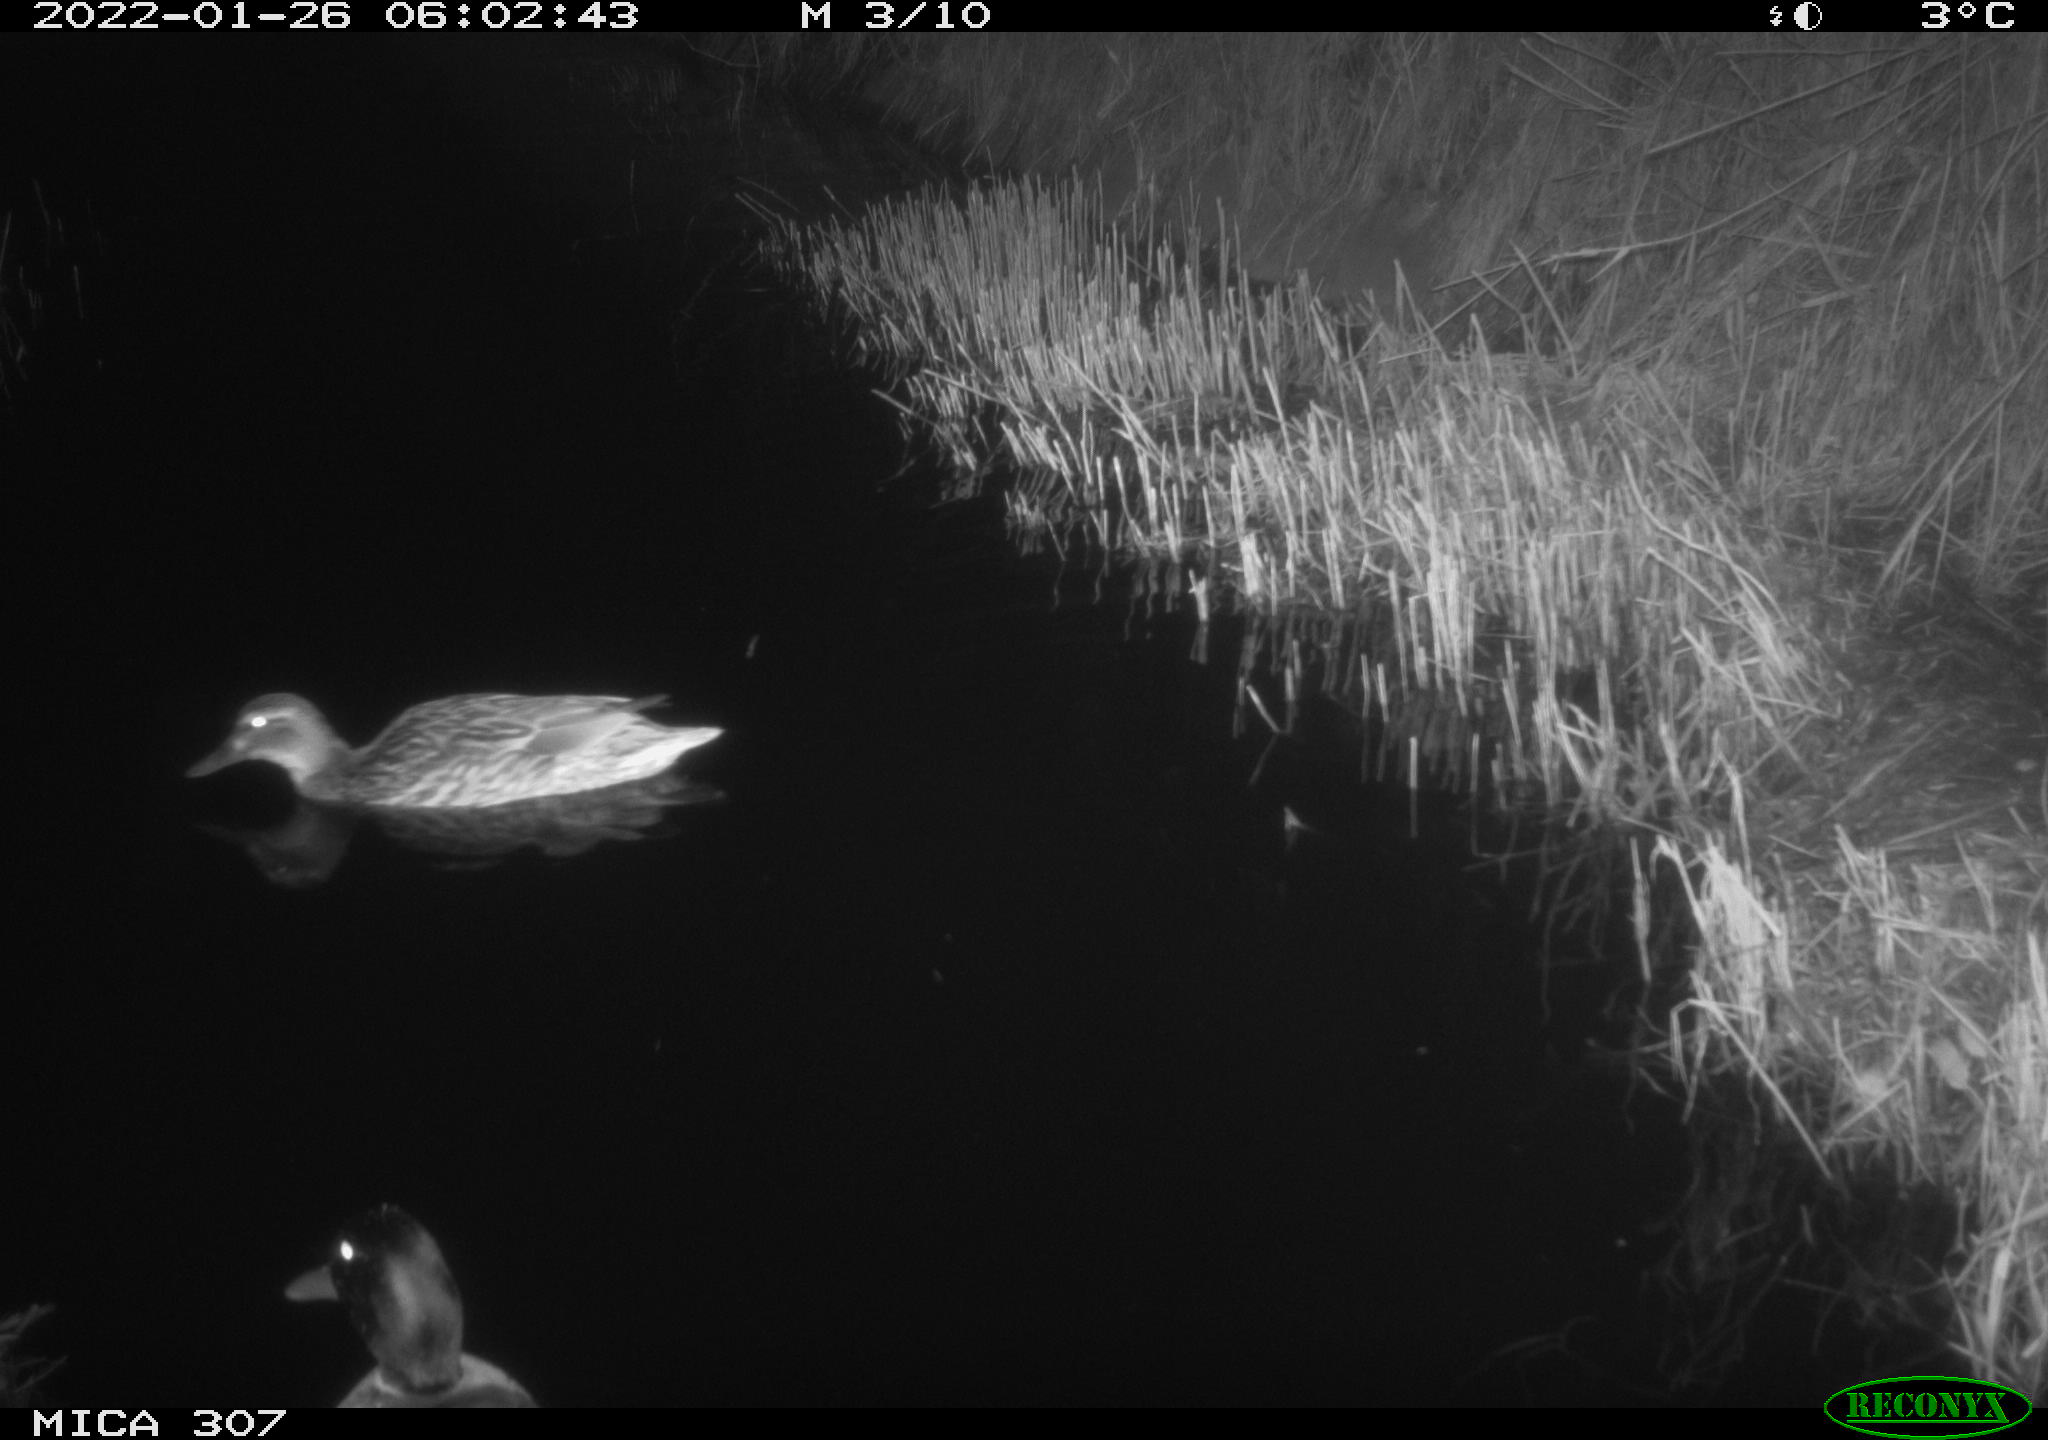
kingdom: Animalia
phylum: Chordata
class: Aves
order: Anseriformes
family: Anatidae
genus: Anas
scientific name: Anas
